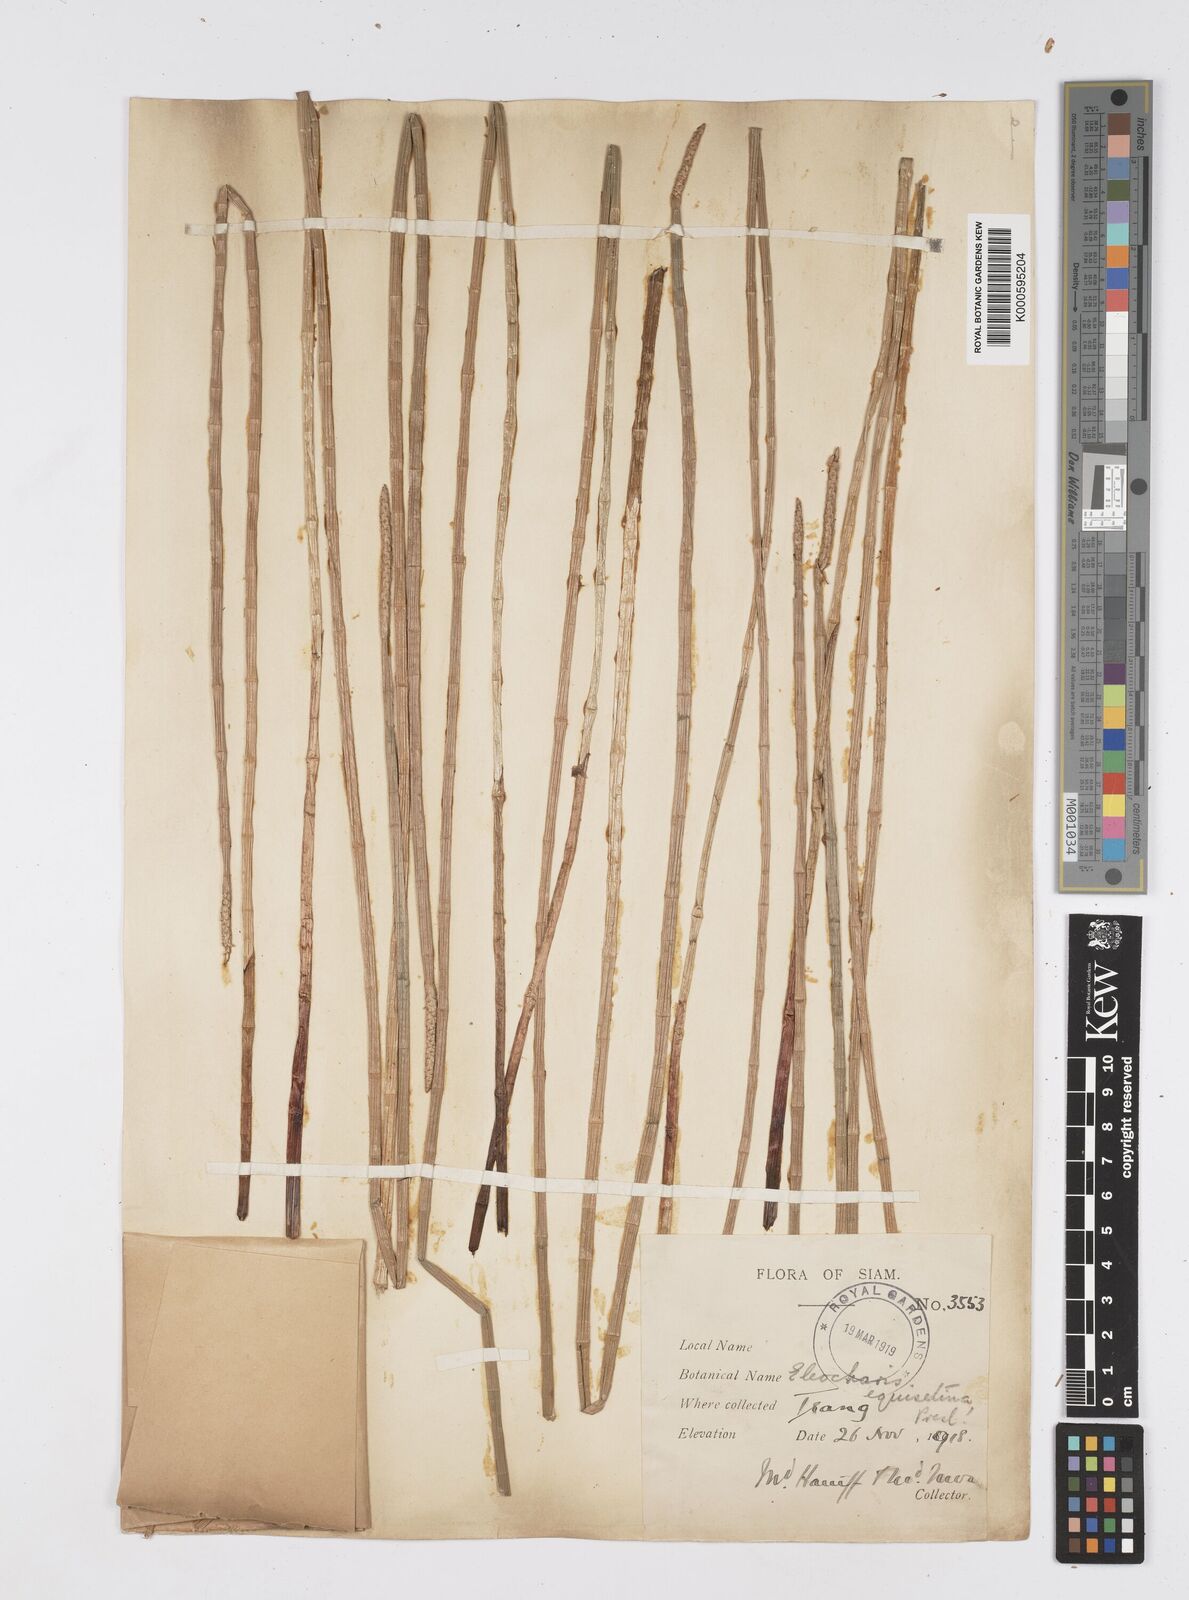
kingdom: Plantae
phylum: Tracheophyta
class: Liliopsida
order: Poales
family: Cyperaceae
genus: Eleocharis
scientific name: Eleocharis dulcis
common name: Chinese water chestnut
